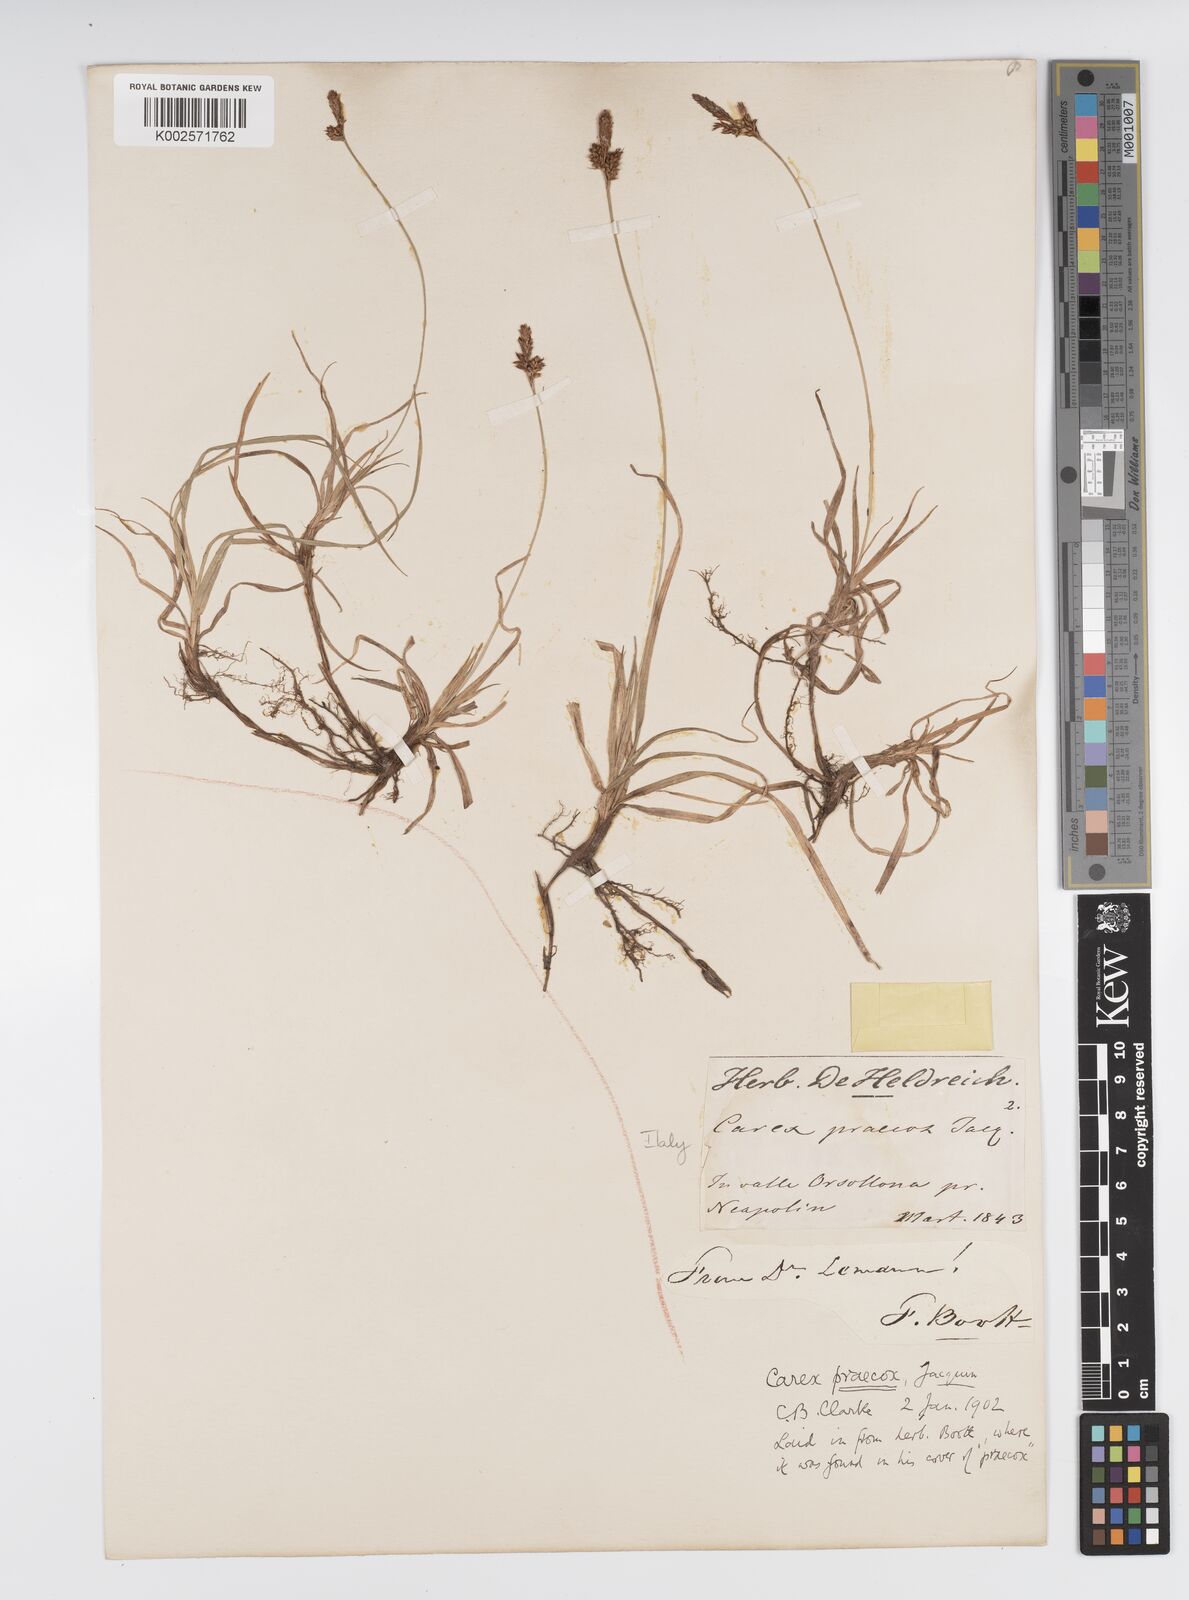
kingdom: Plantae
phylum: Tracheophyta
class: Liliopsida
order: Poales
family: Cyperaceae
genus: Carex
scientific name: Carex caryophyllea
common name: Spring sedge
